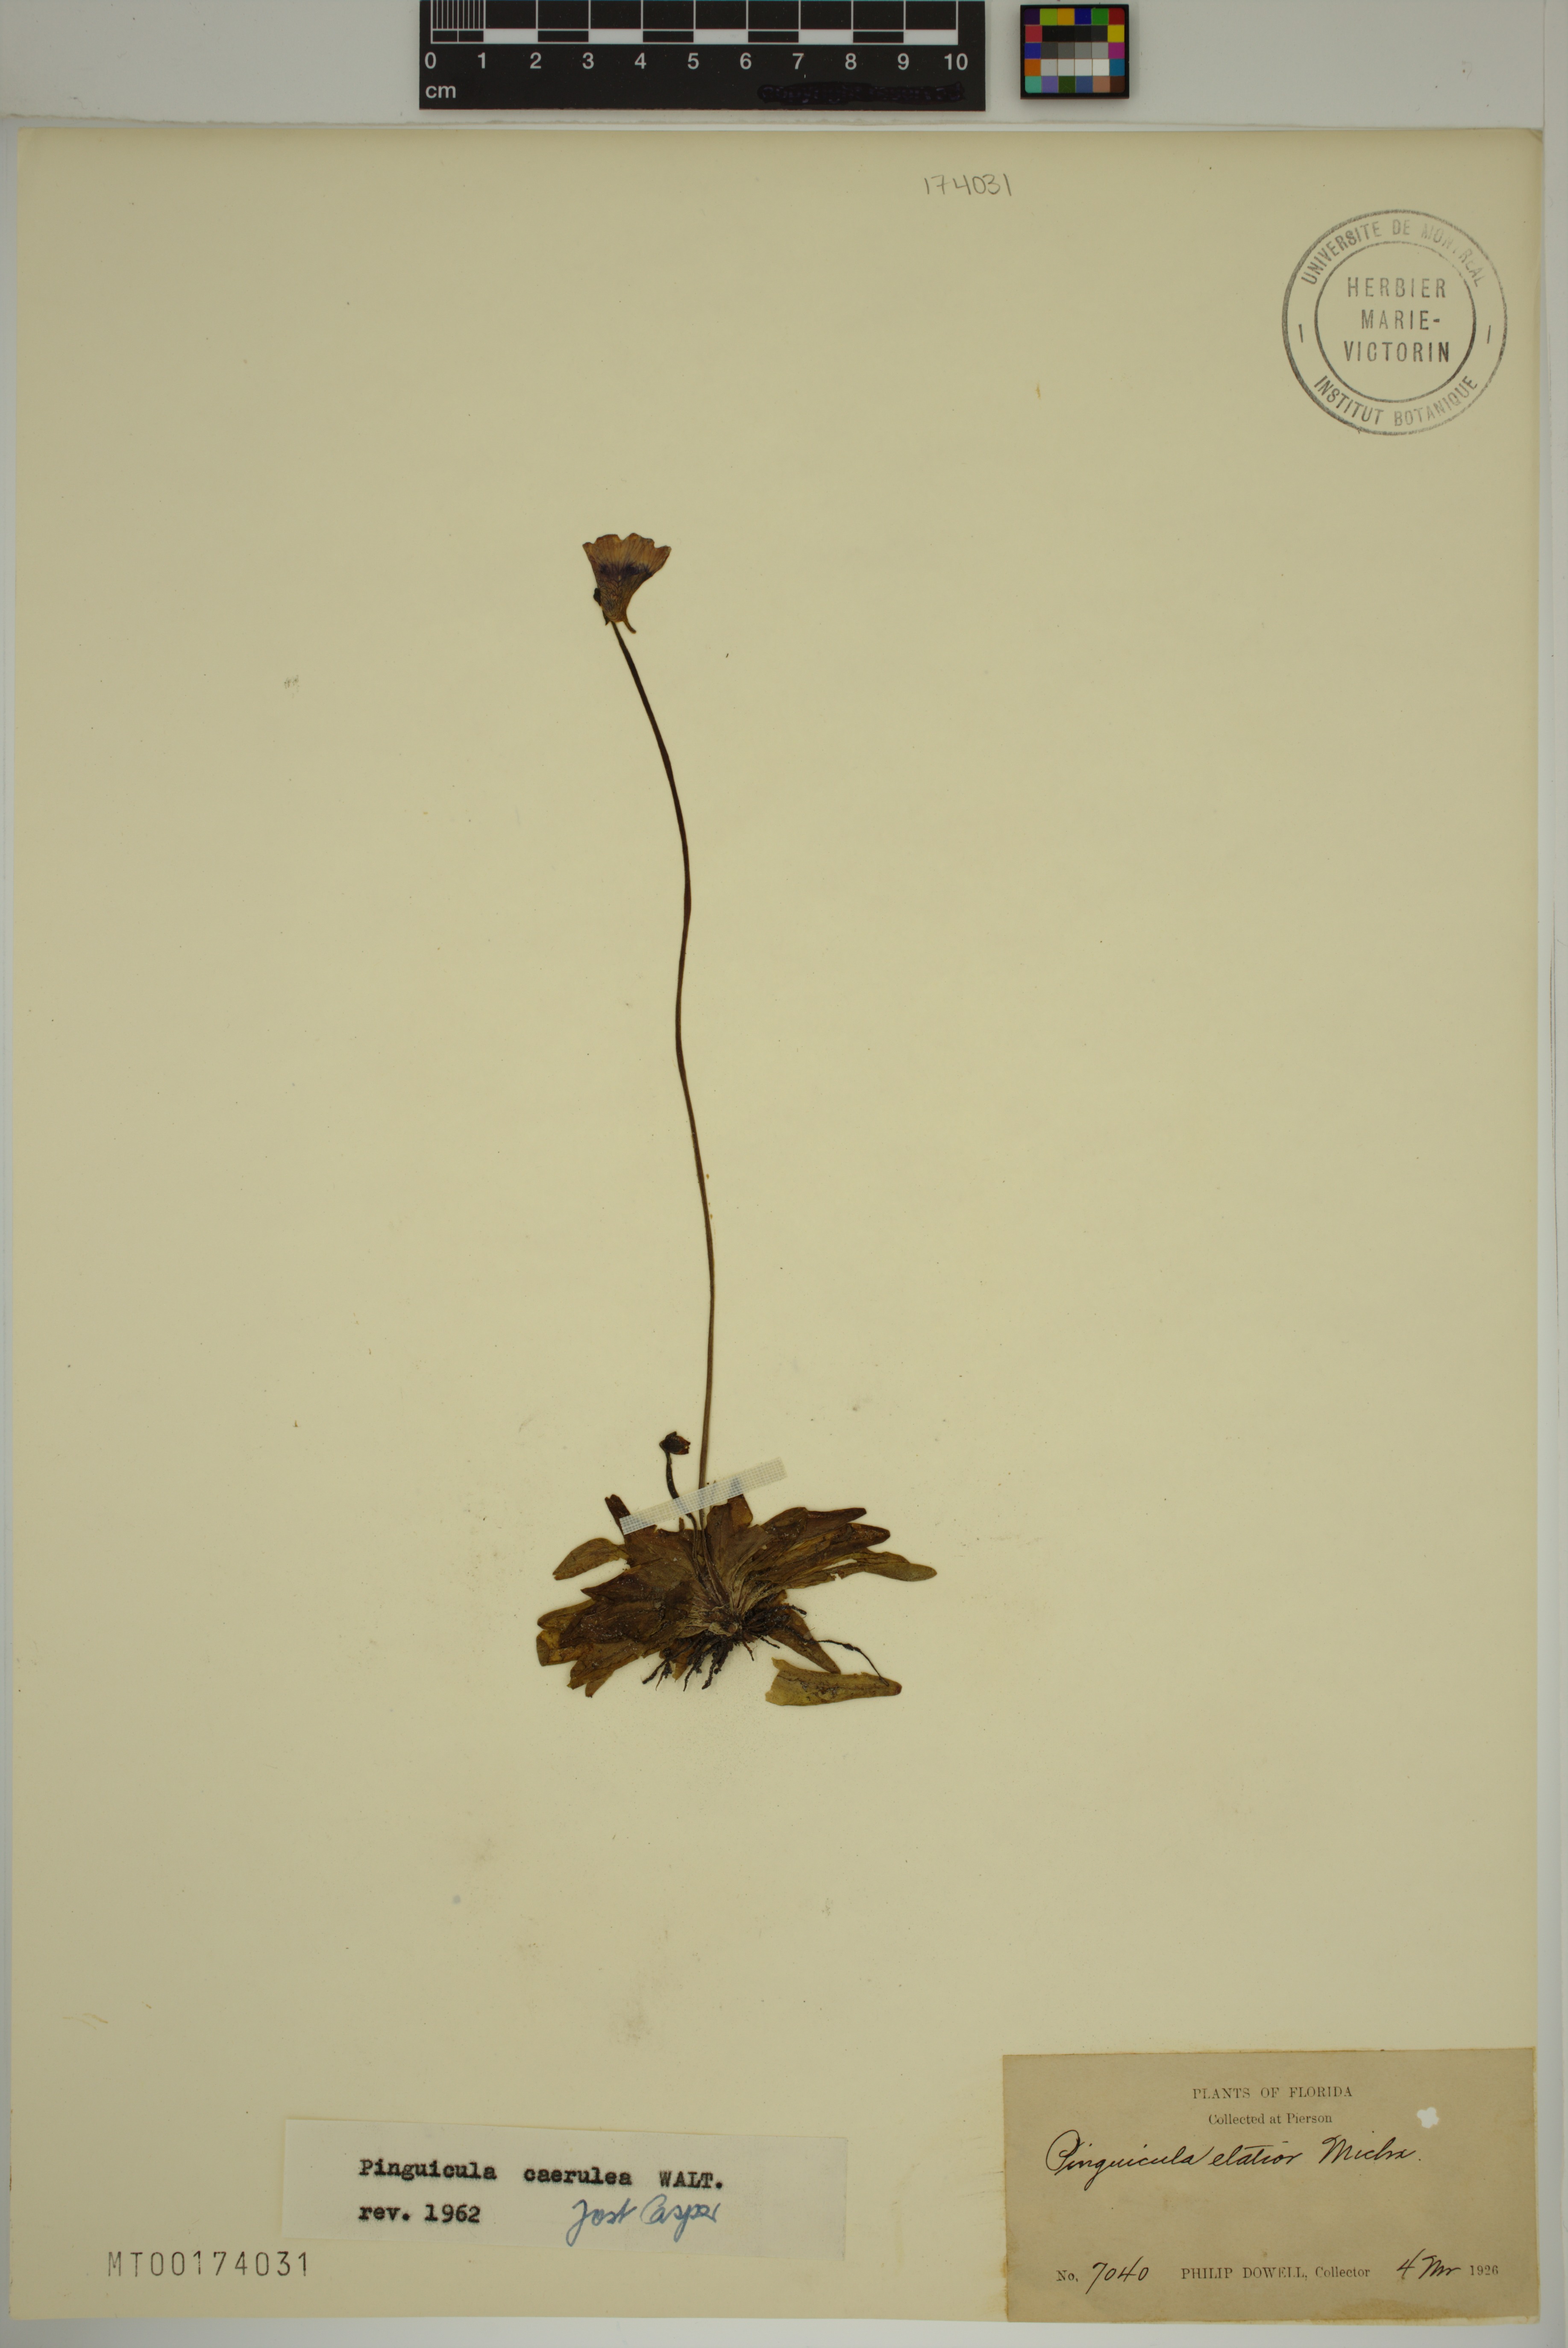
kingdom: Plantae
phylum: Tracheophyta
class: Magnoliopsida
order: Lamiales
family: Lentibulariaceae
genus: Pinguicula
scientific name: Pinguicula caerulea
